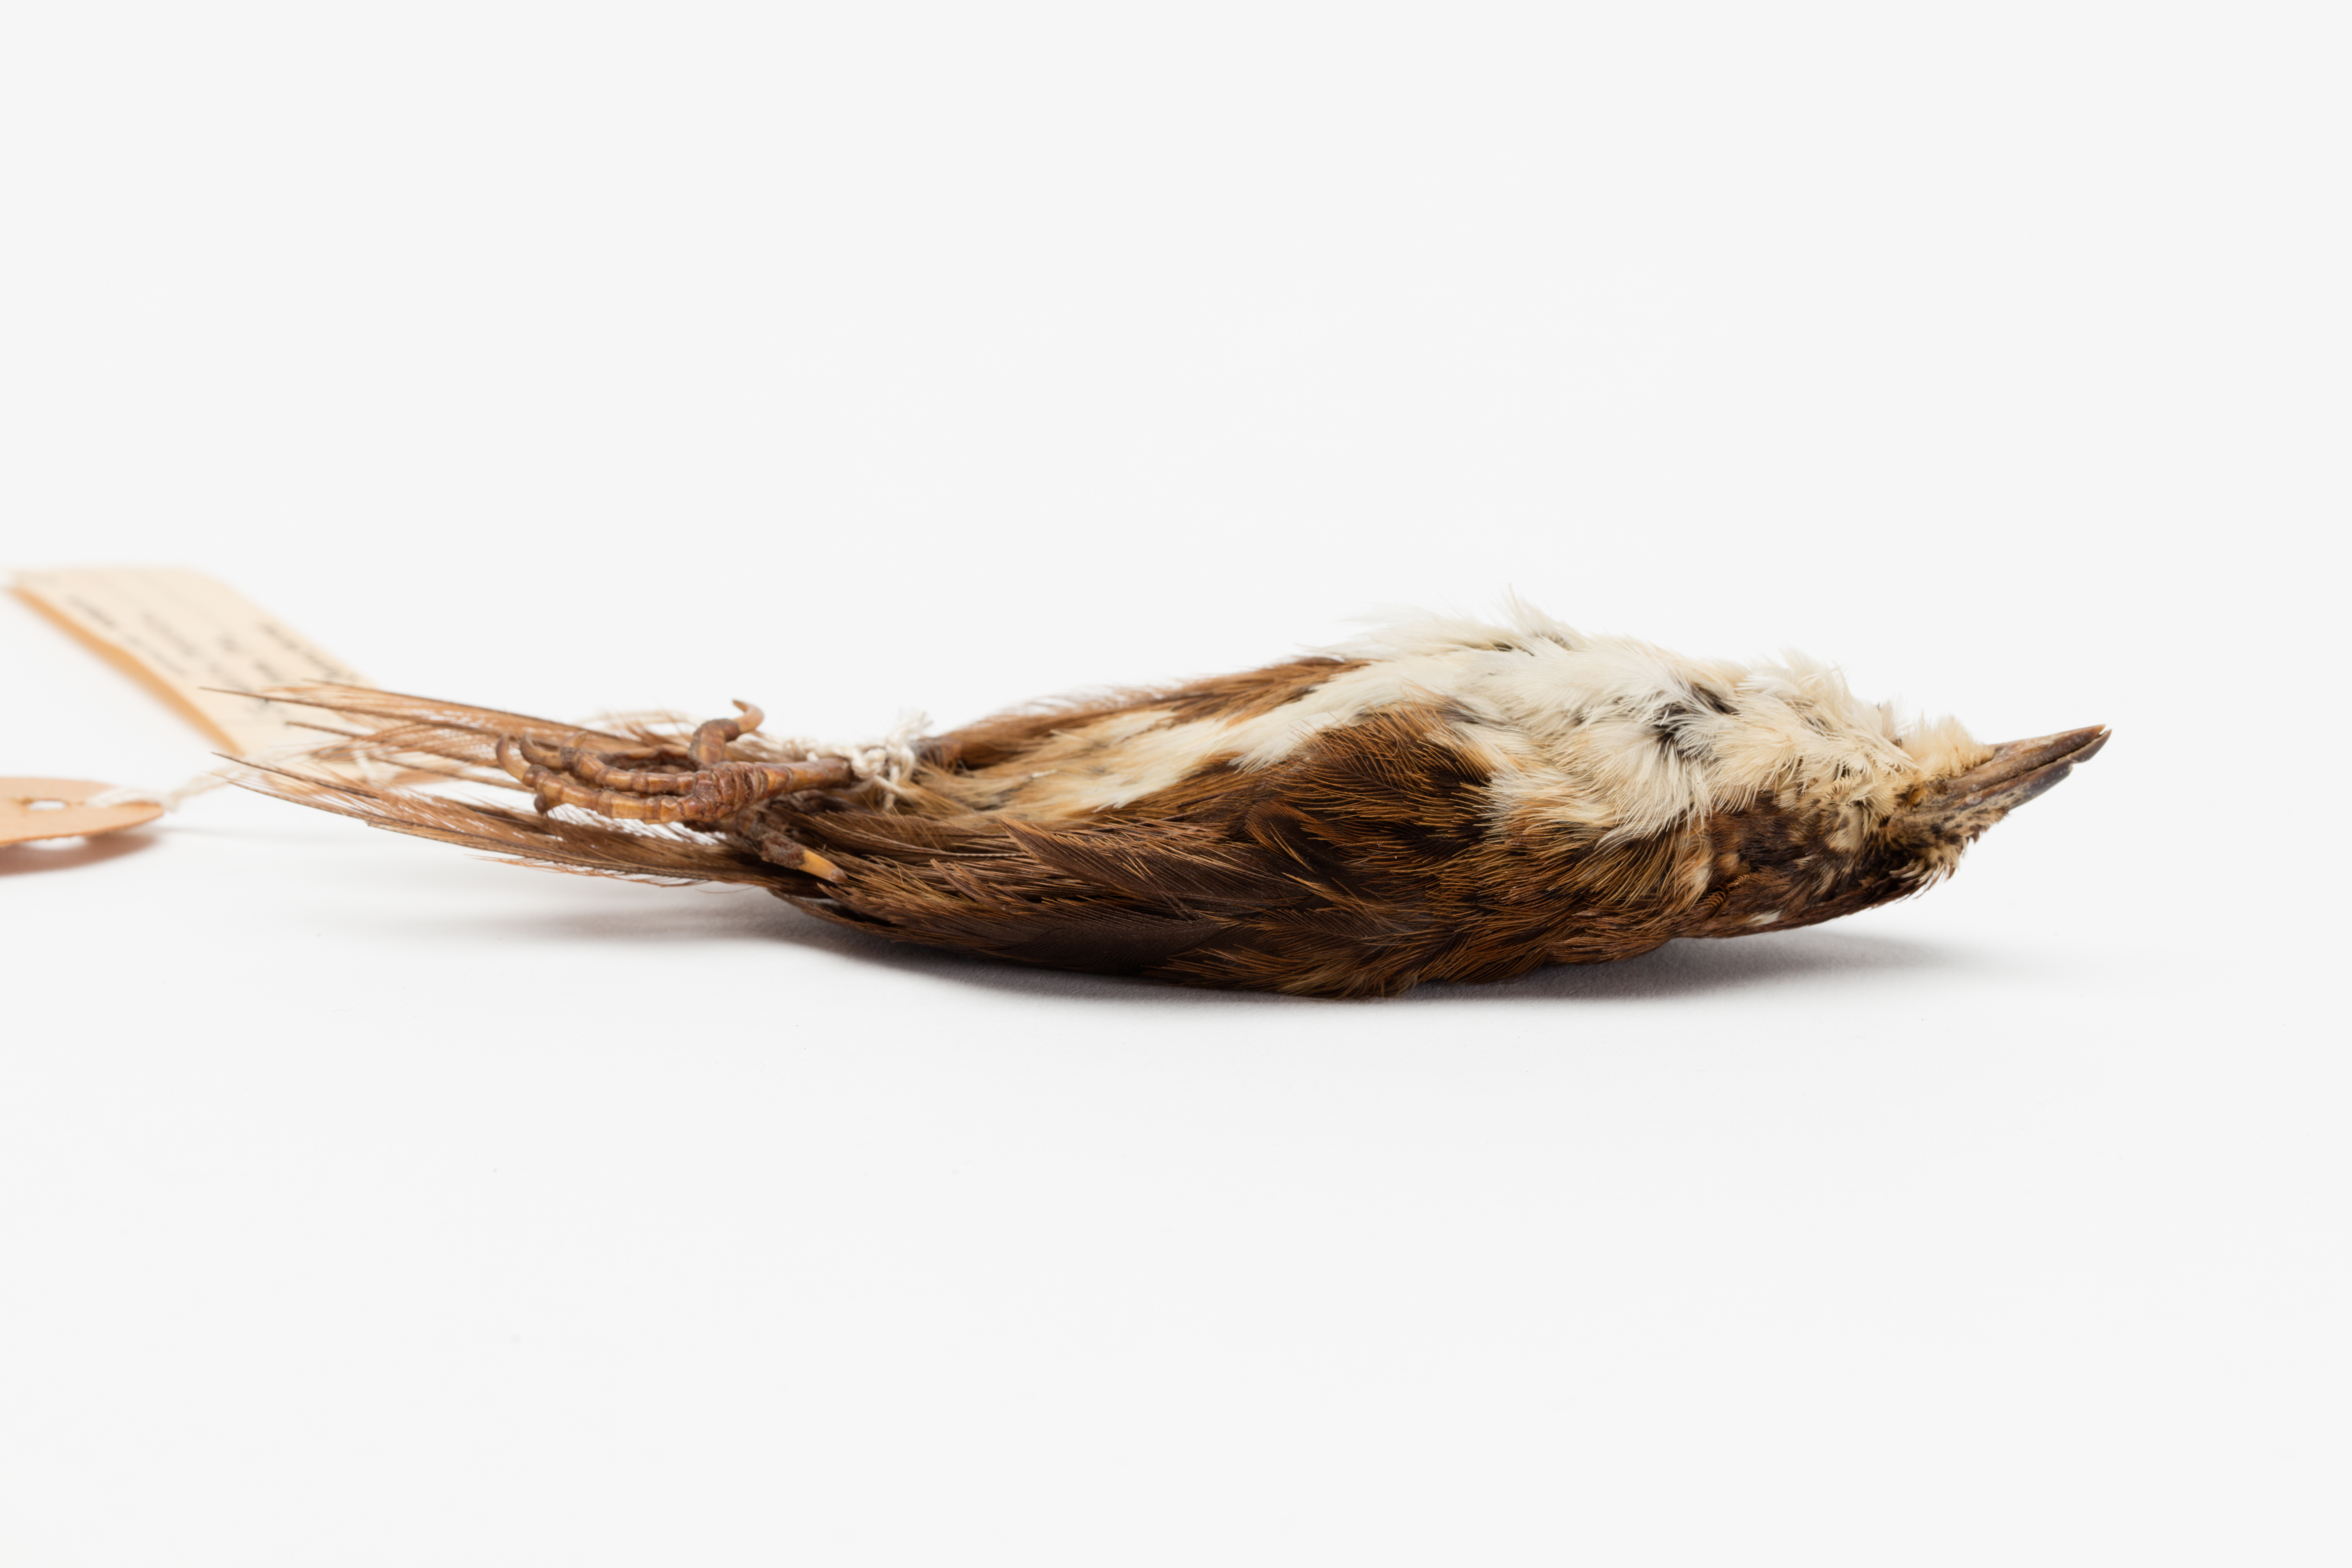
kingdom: Animalia
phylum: Chordata
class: Aves
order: Passeriformes
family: Locustellidae
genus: Megalurus
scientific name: Megalurus rufescens
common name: Chatham fernbird
